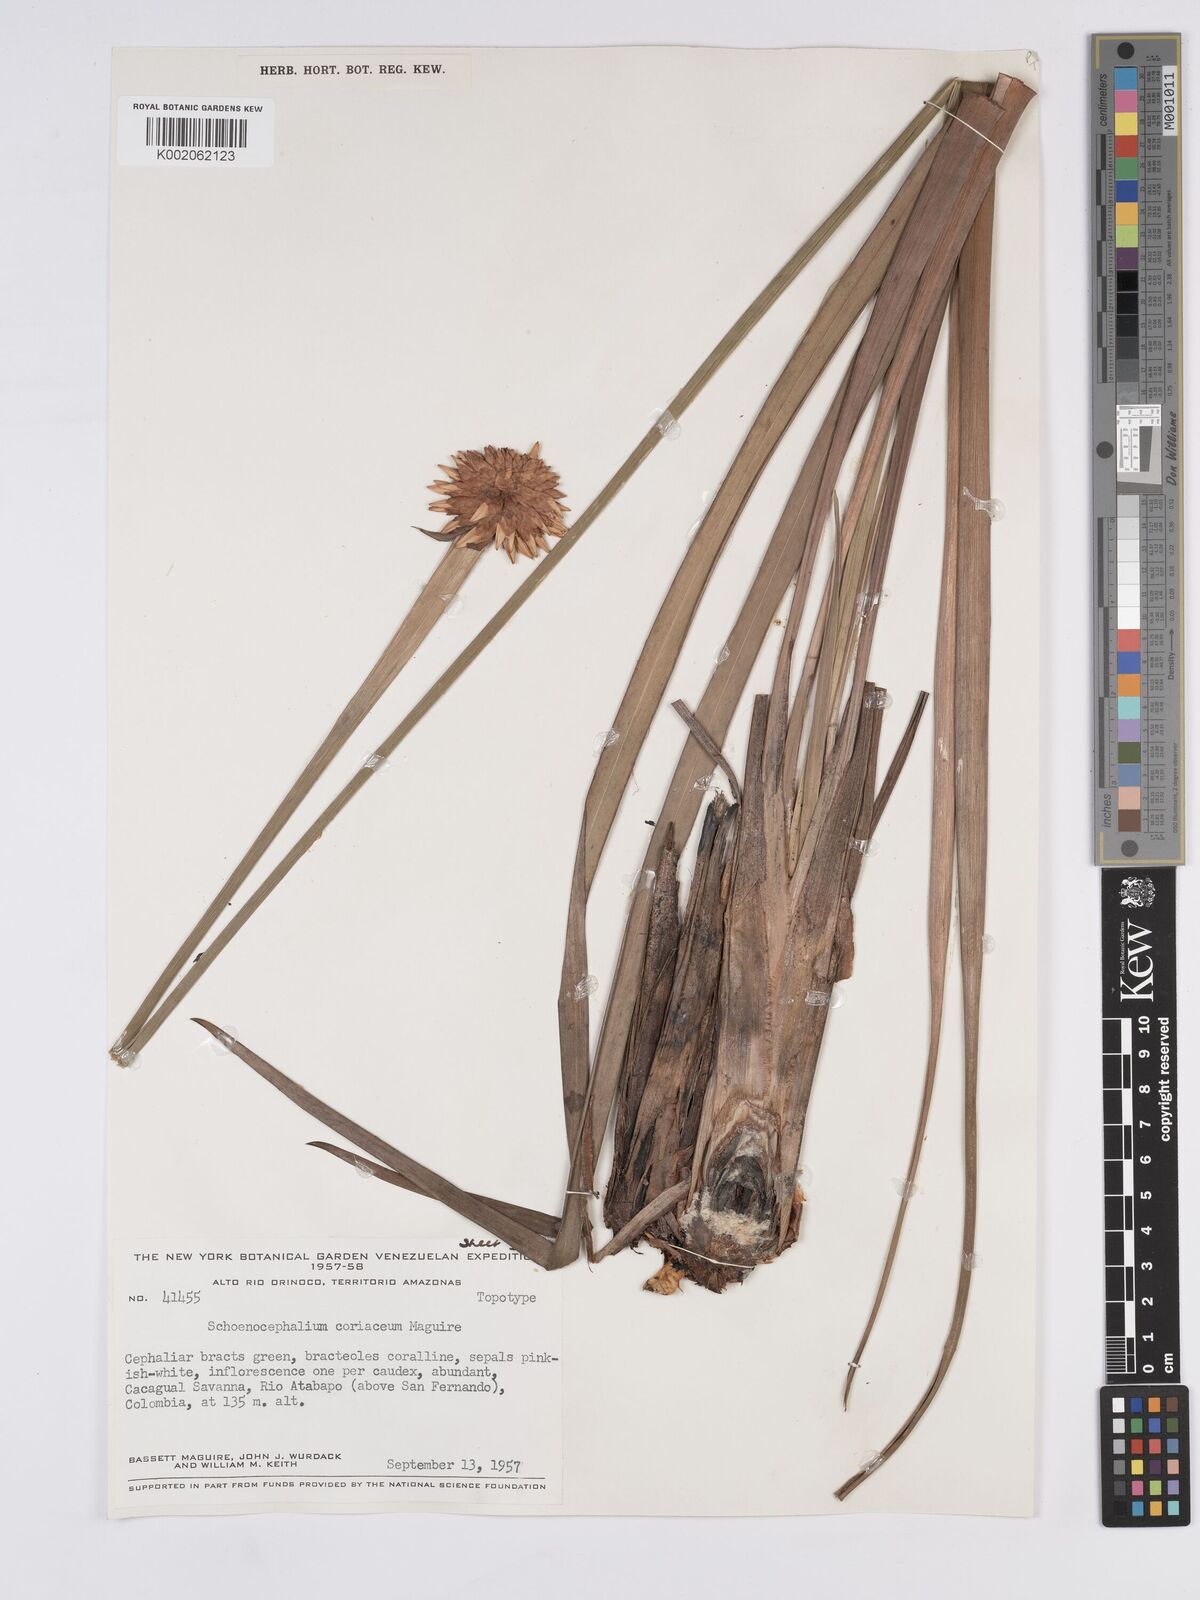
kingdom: Plantae
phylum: Tracheophyta
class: Liliopsida
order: Poales
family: Rapateaceae
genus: Schoenocephalium
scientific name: Schoenocephalium cucullatum
